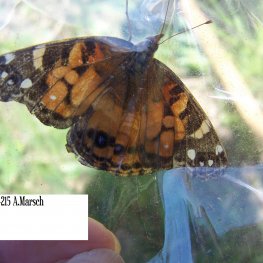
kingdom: Animalia
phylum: Arthropoda
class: Insecta
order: Lepidoptera
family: Nymphalidae
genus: Vanessa
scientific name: Vanessa virginiensis
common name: American Lady
